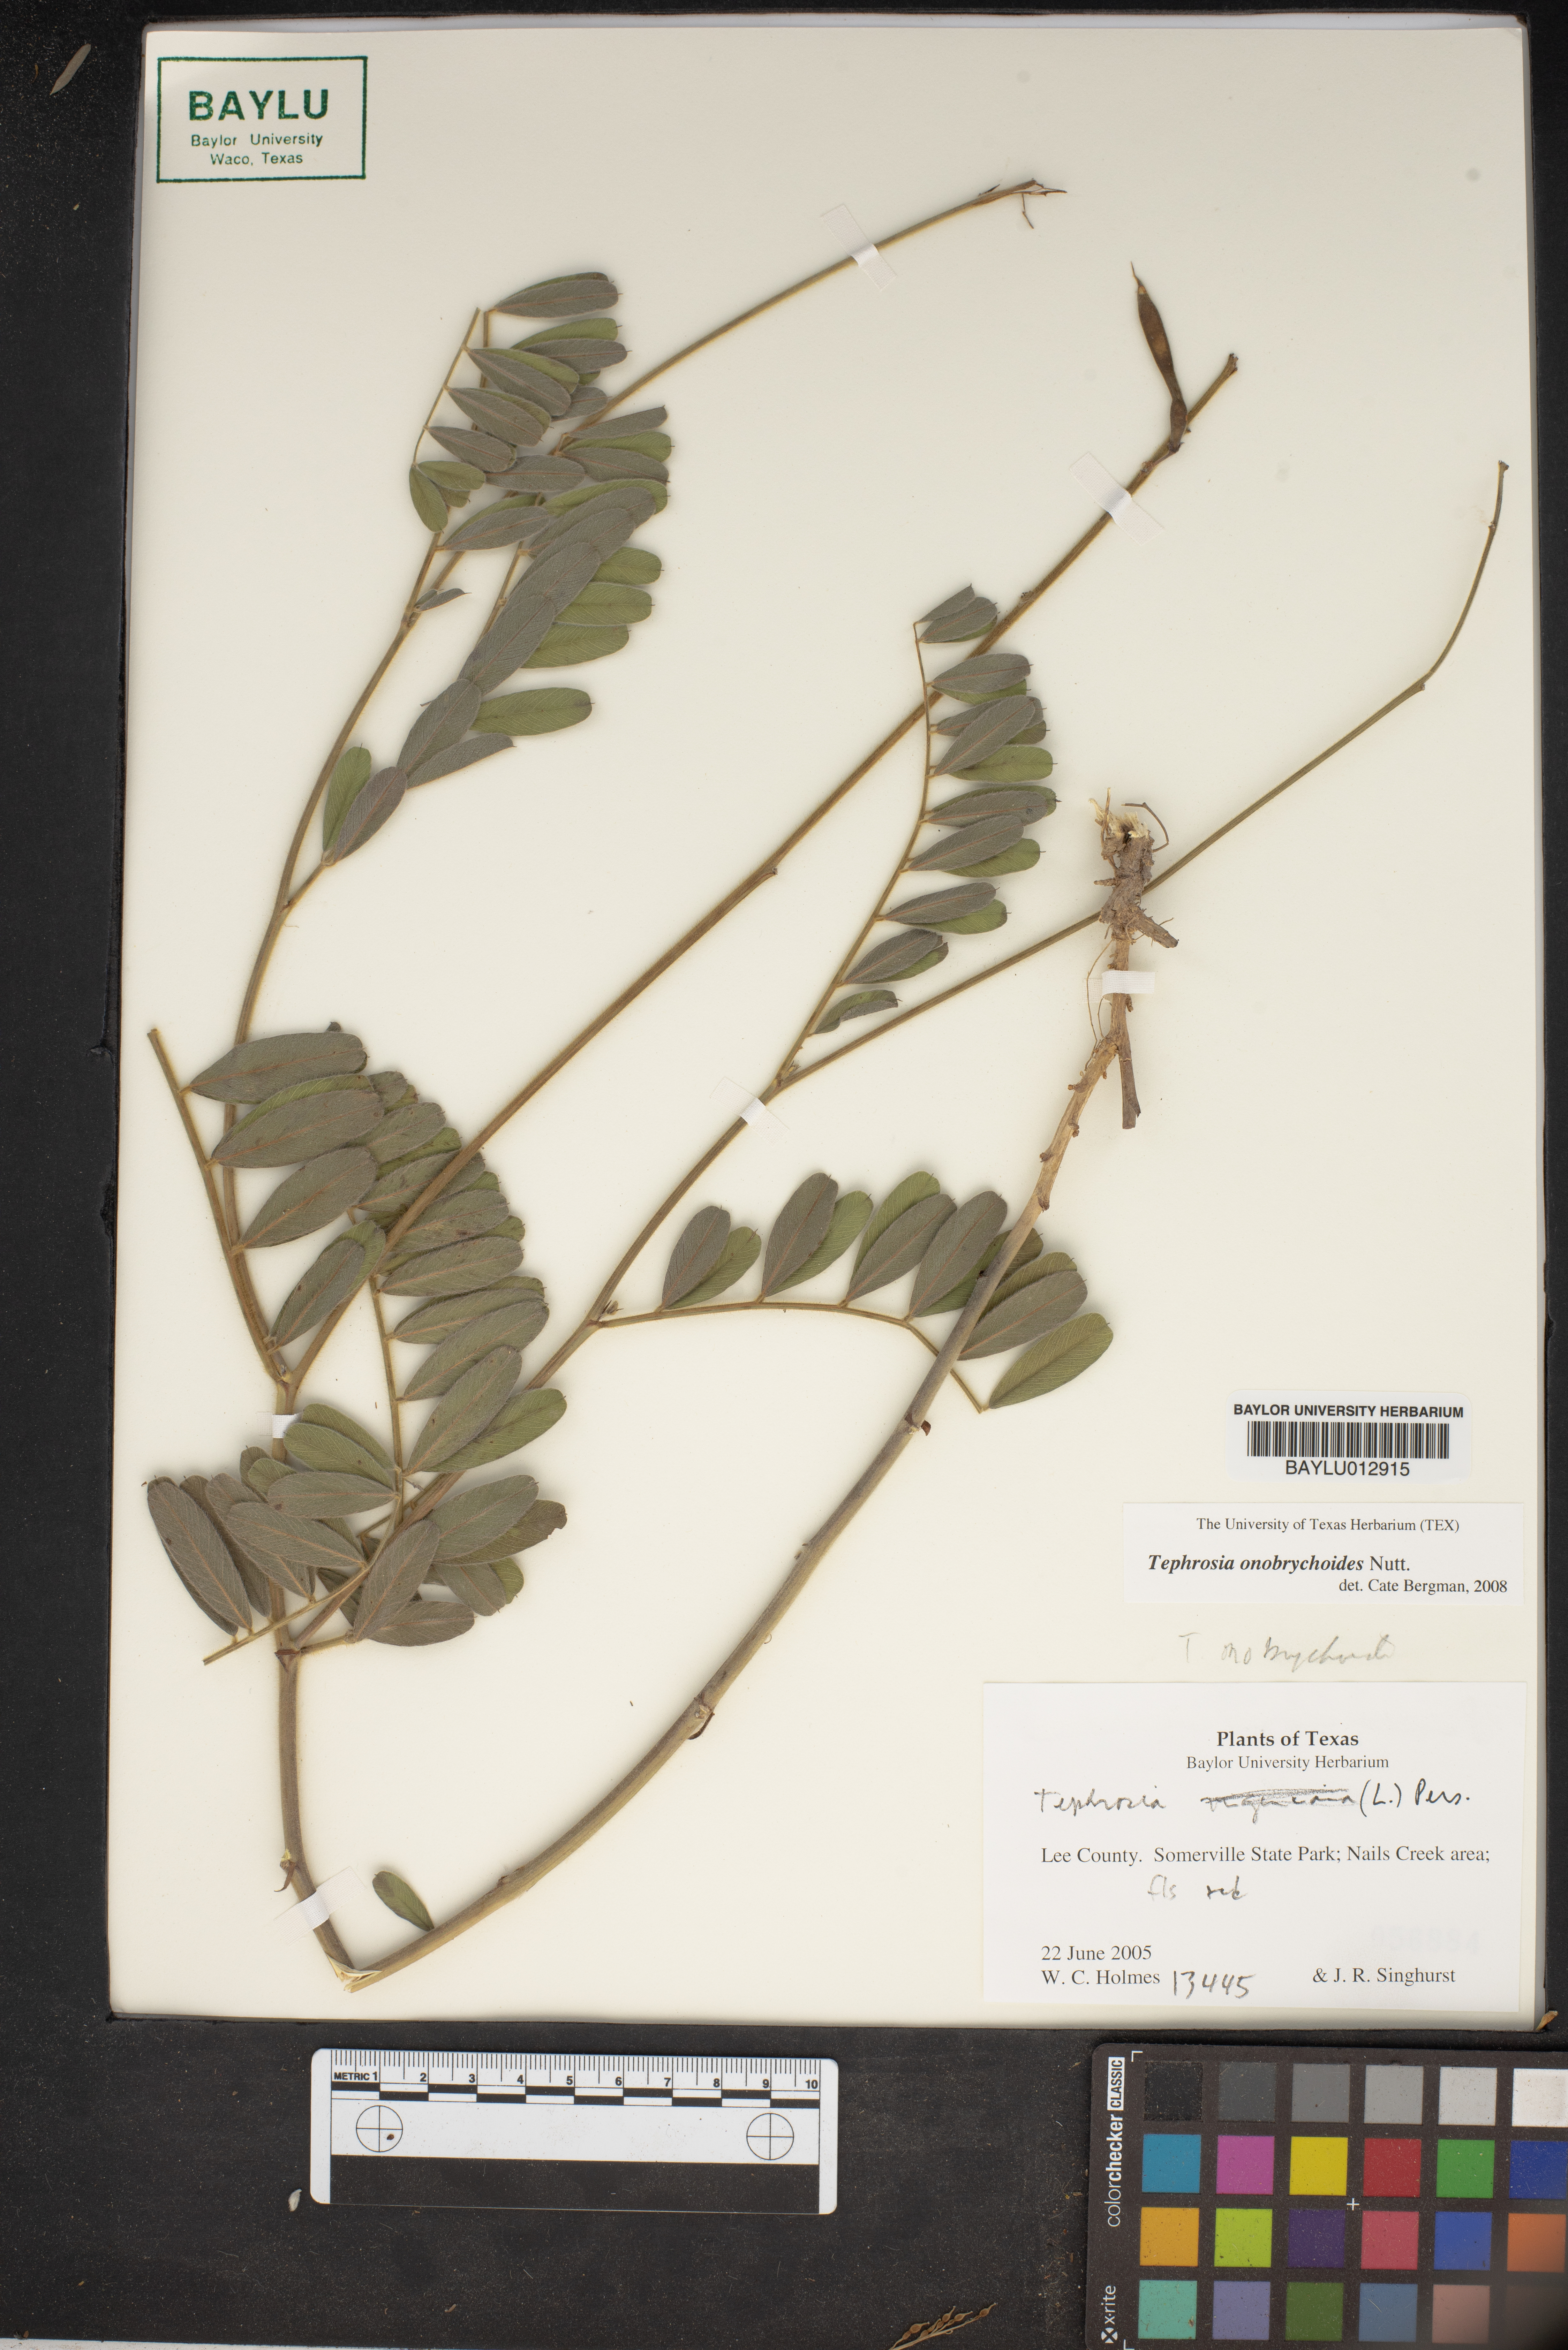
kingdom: Plantae
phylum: Tracheophyta
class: Magnoliopsida
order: Fabales
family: Fabaceae
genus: Tephrosia
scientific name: Tephrosia onobrychoides
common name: Multi-bloom hoary-pea
